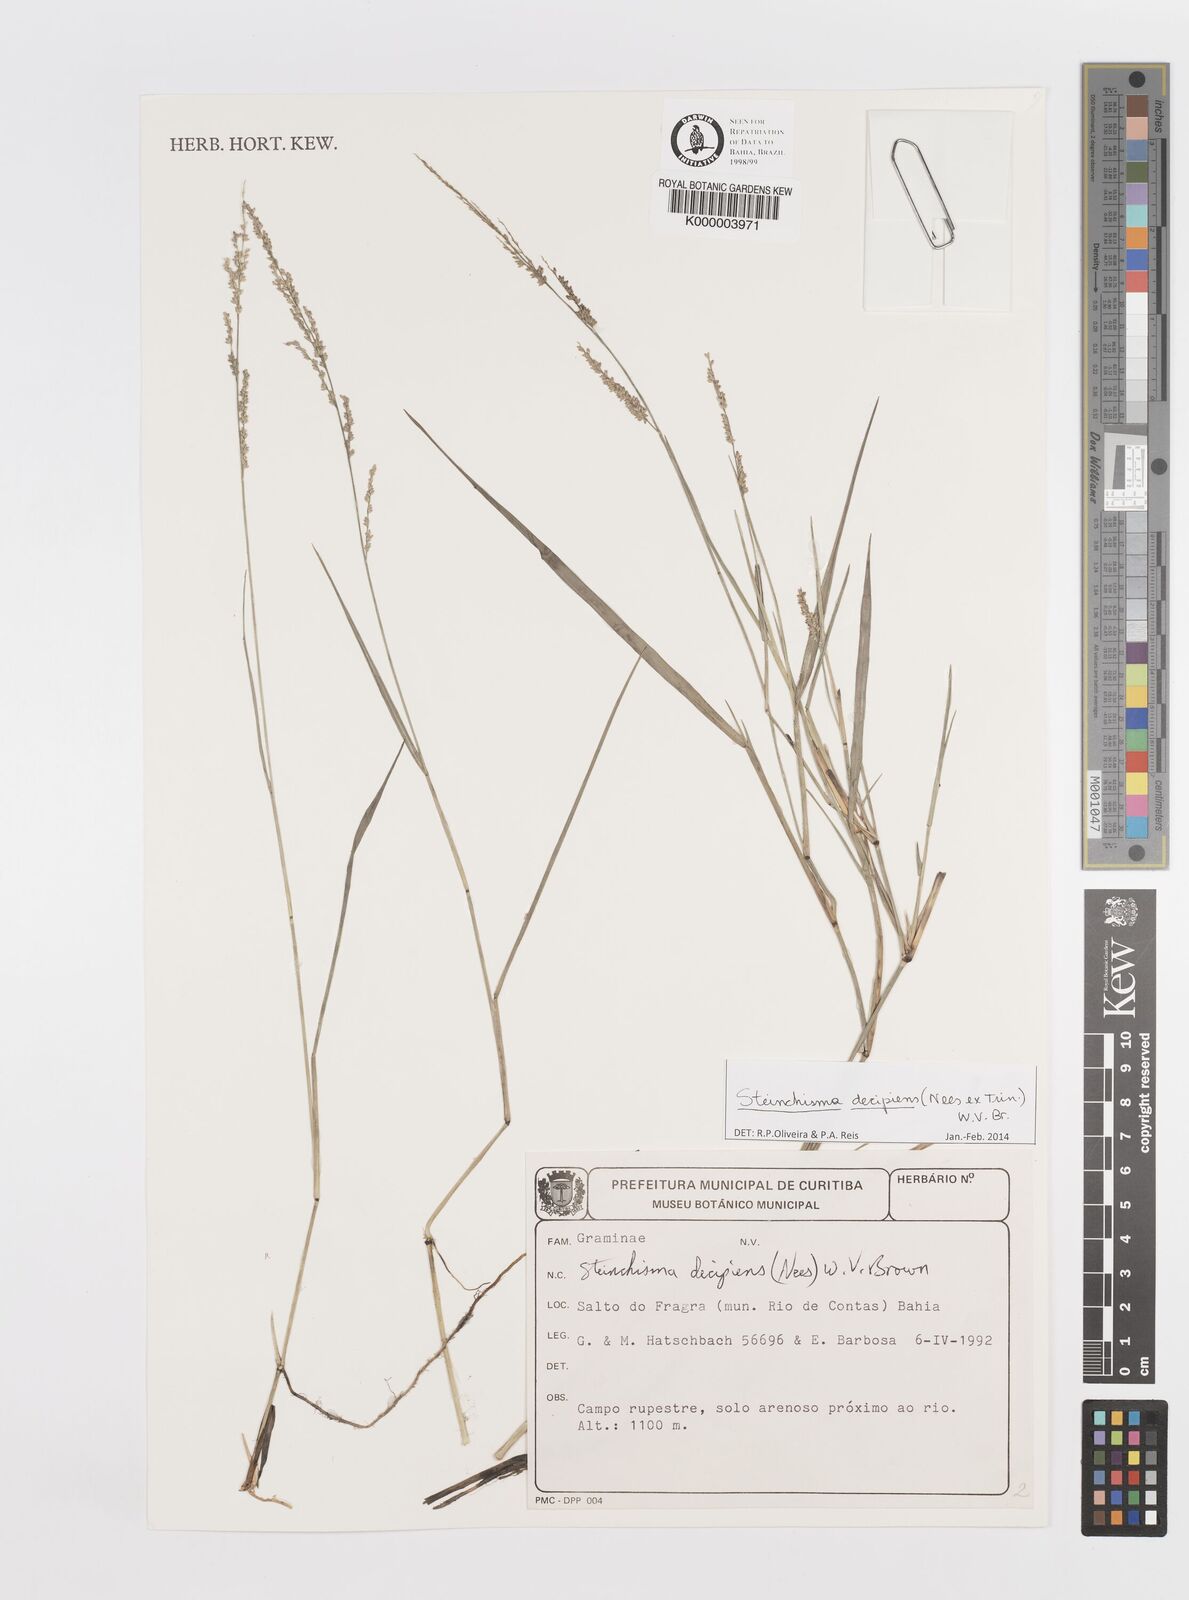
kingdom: Plantae
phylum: Tracheophyta
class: Liliopsida
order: Poales
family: Poaceae
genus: Steinchisma
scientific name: Steinchisma
